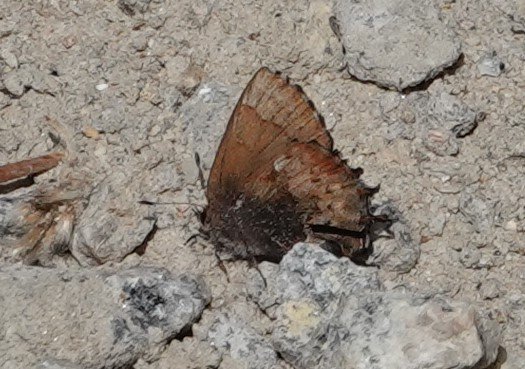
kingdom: Animalia
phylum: Arthropoda
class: Insecta
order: Lepidoptera
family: Lycaenidae
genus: Incisalia
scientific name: Incisalia henrici
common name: Henry's Elfin
